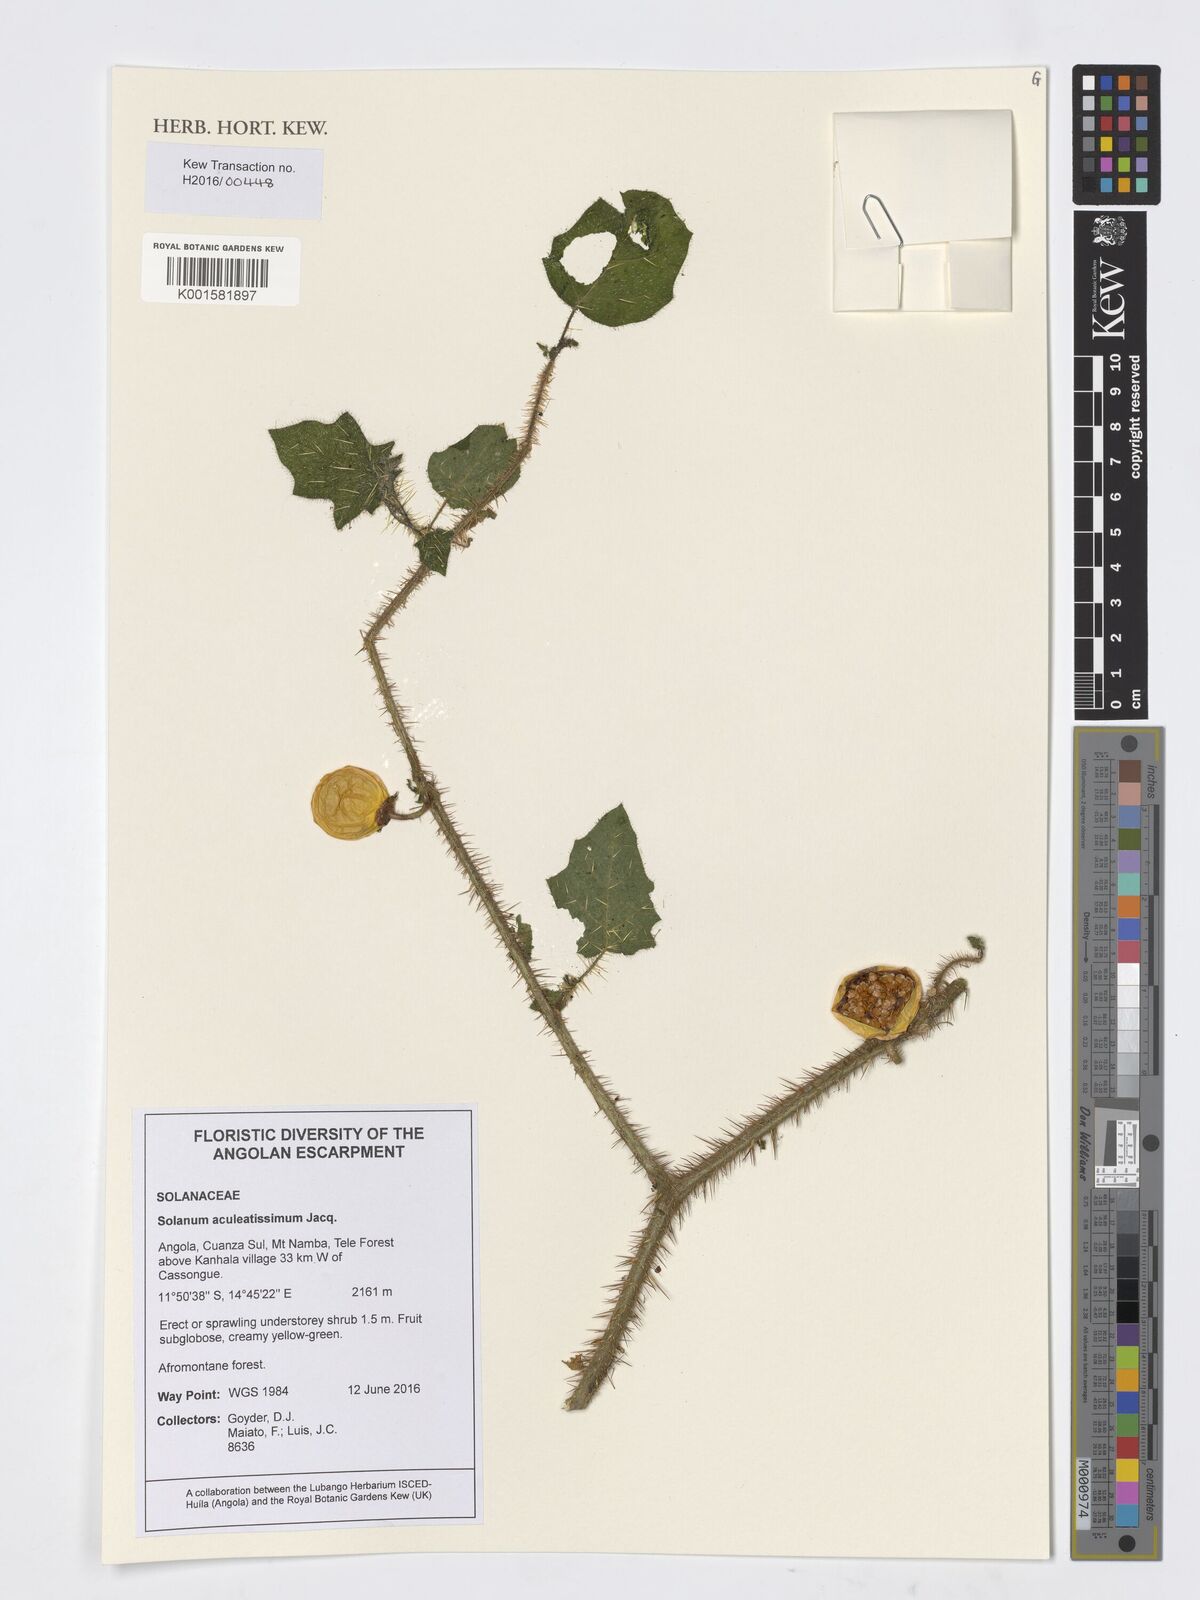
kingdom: Plantae
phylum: Tracheophyta
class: Magnoliopsida
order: Solanales
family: Solanaceae
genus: Solanum
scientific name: Solanum aculeatissimum
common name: Dutch eggplant
